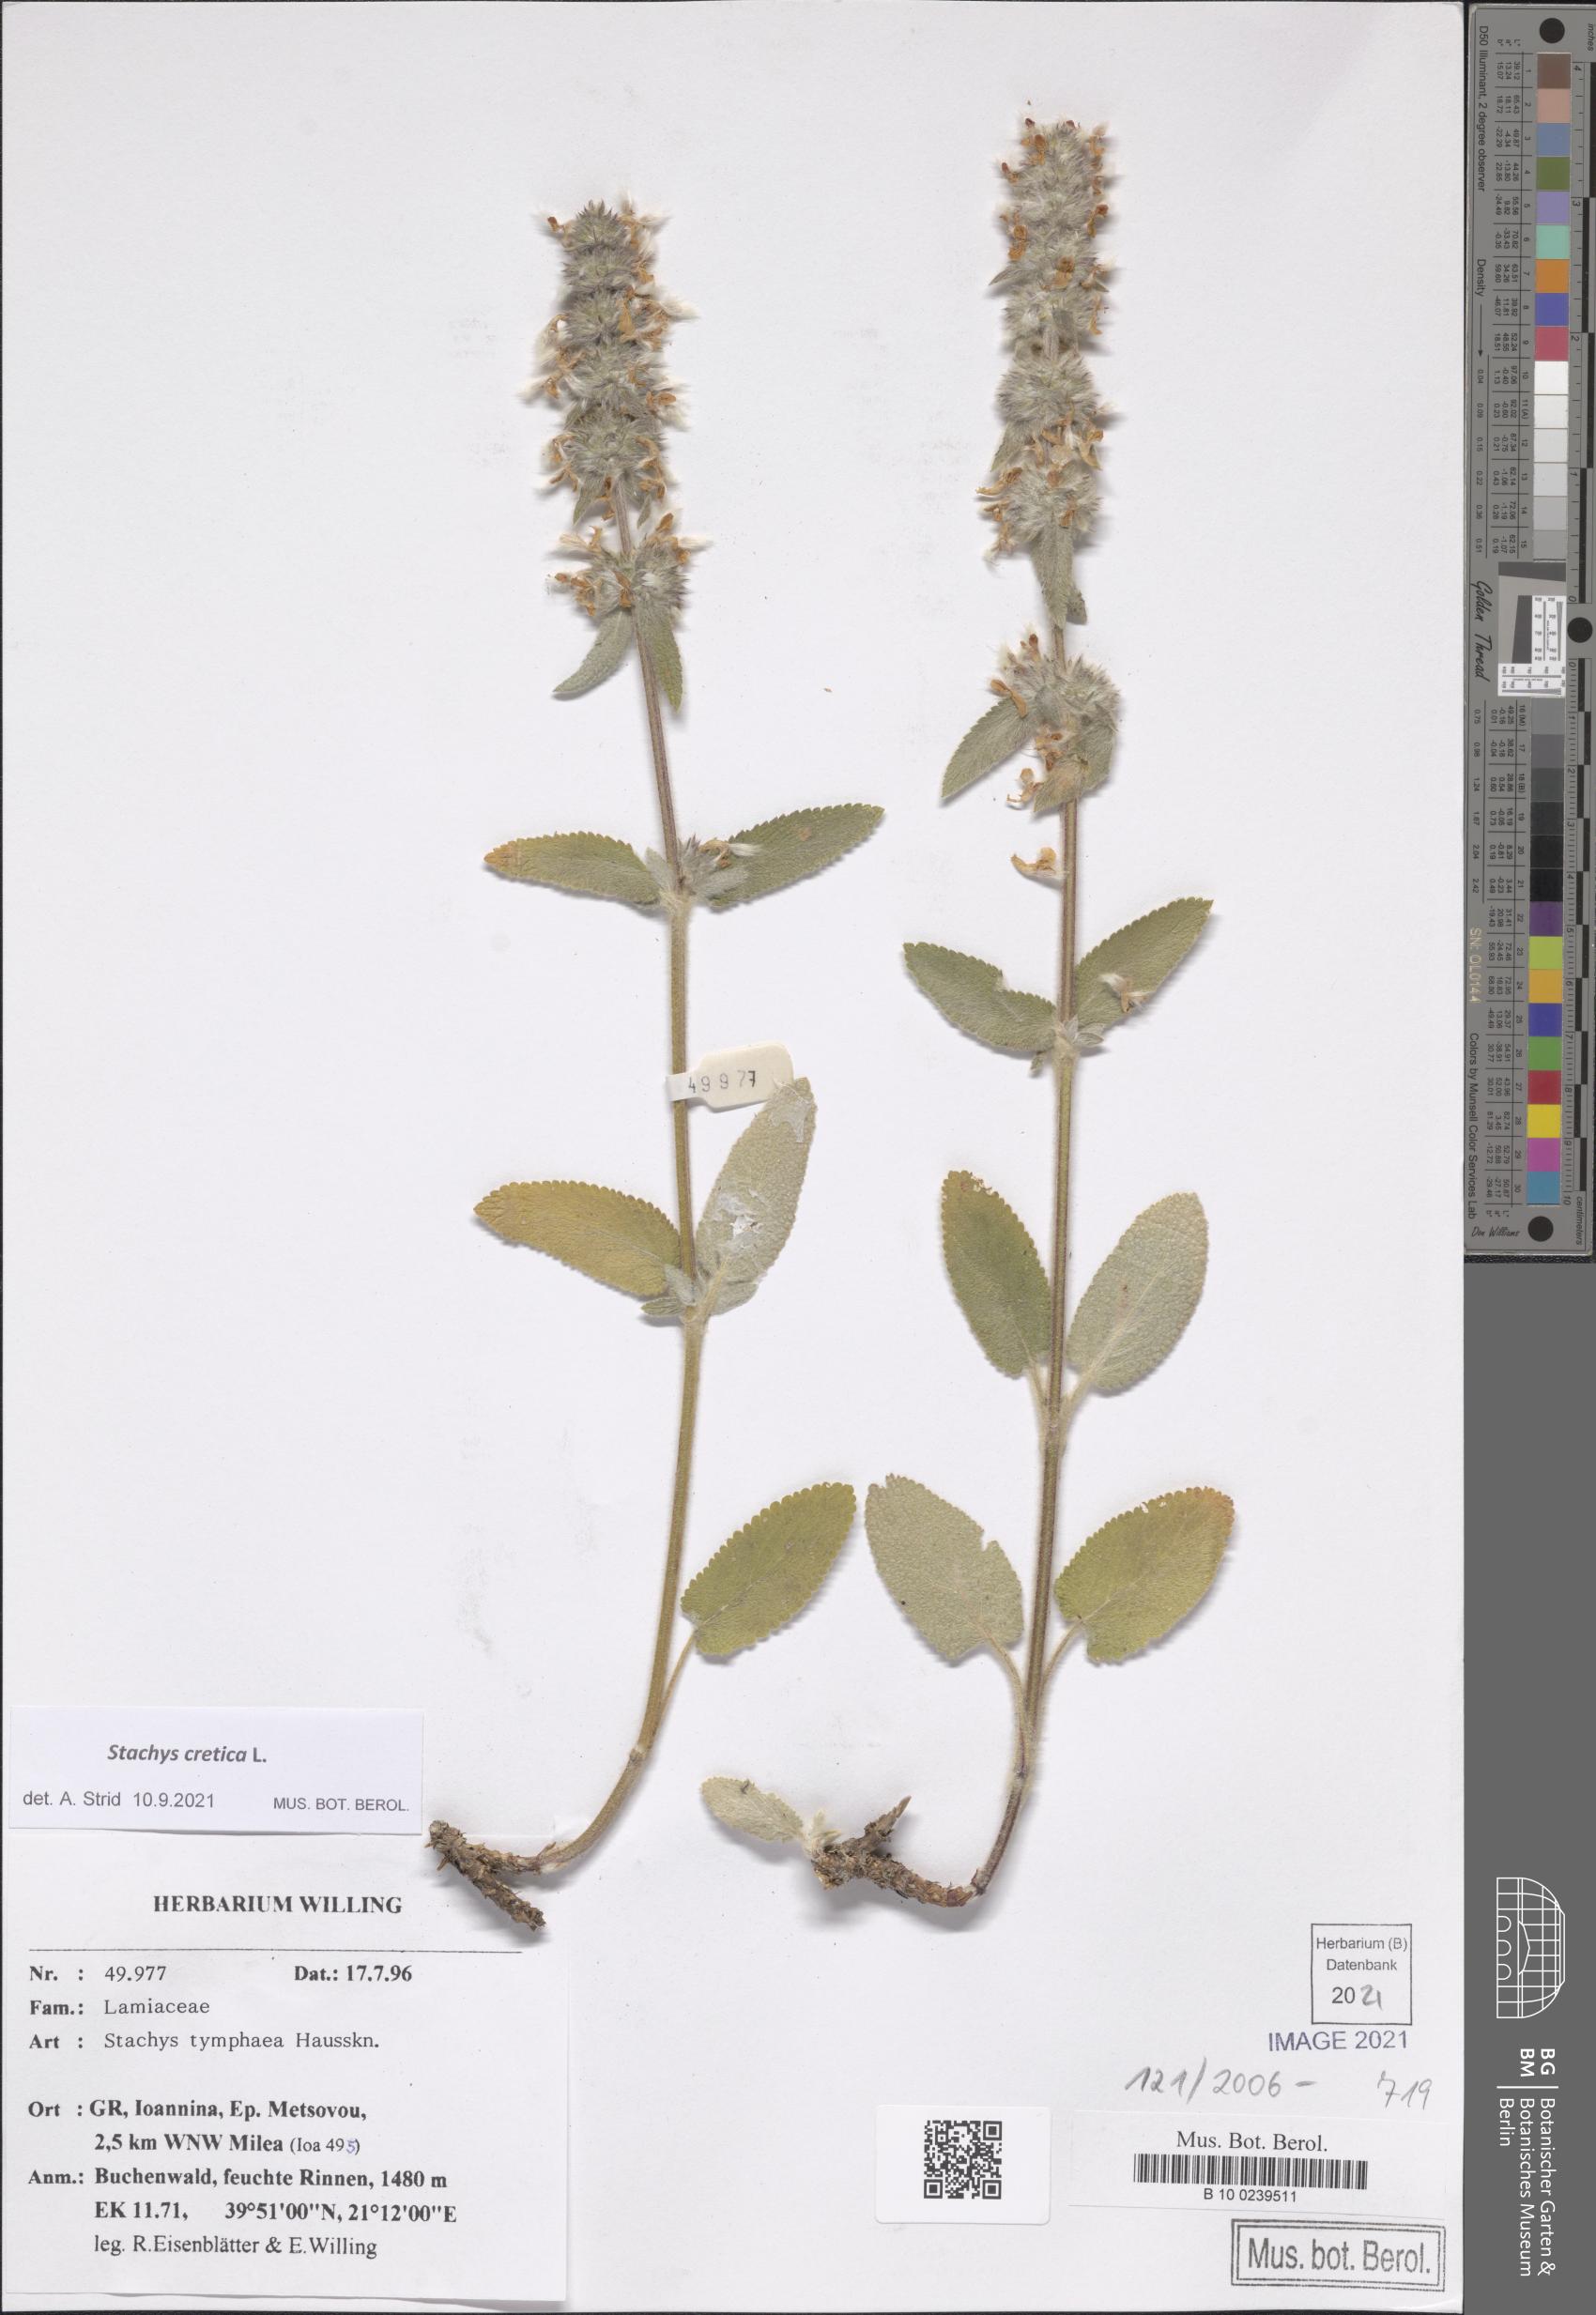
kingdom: Plantae
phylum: Tracheophyta
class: Magnoliopsida
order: Lamiales
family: Lamiaceae
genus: Stachys
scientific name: Stachys cretica
